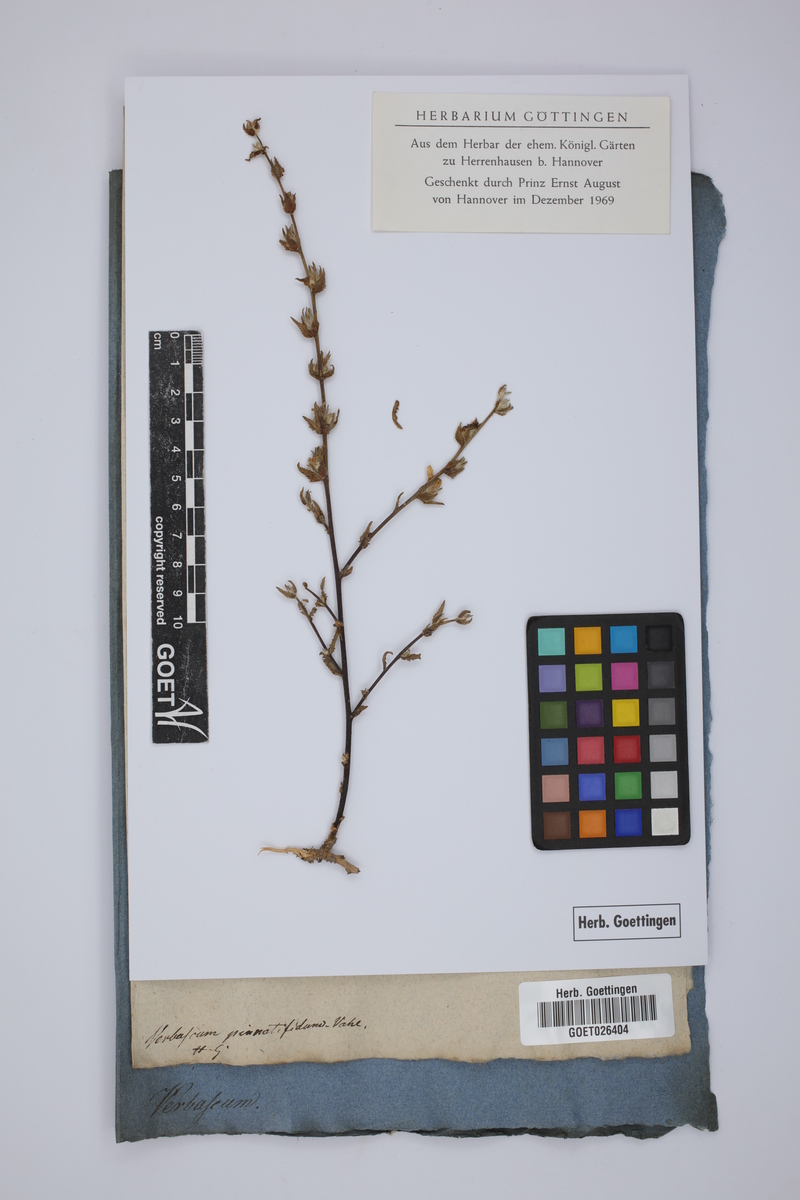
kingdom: Plantae
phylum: Tracheophyta
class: Magnoliopsida
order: Lamiales
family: Scrophulariaceae
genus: Verbascum
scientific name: Verbascum pinnatifidum
